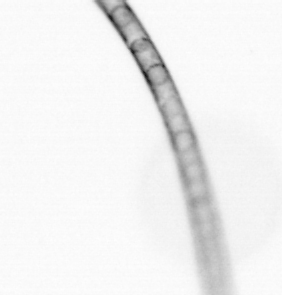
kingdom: Chromista
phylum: Ochrophyta
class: Bacillariophyceae
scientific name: Bacillariophyceae
